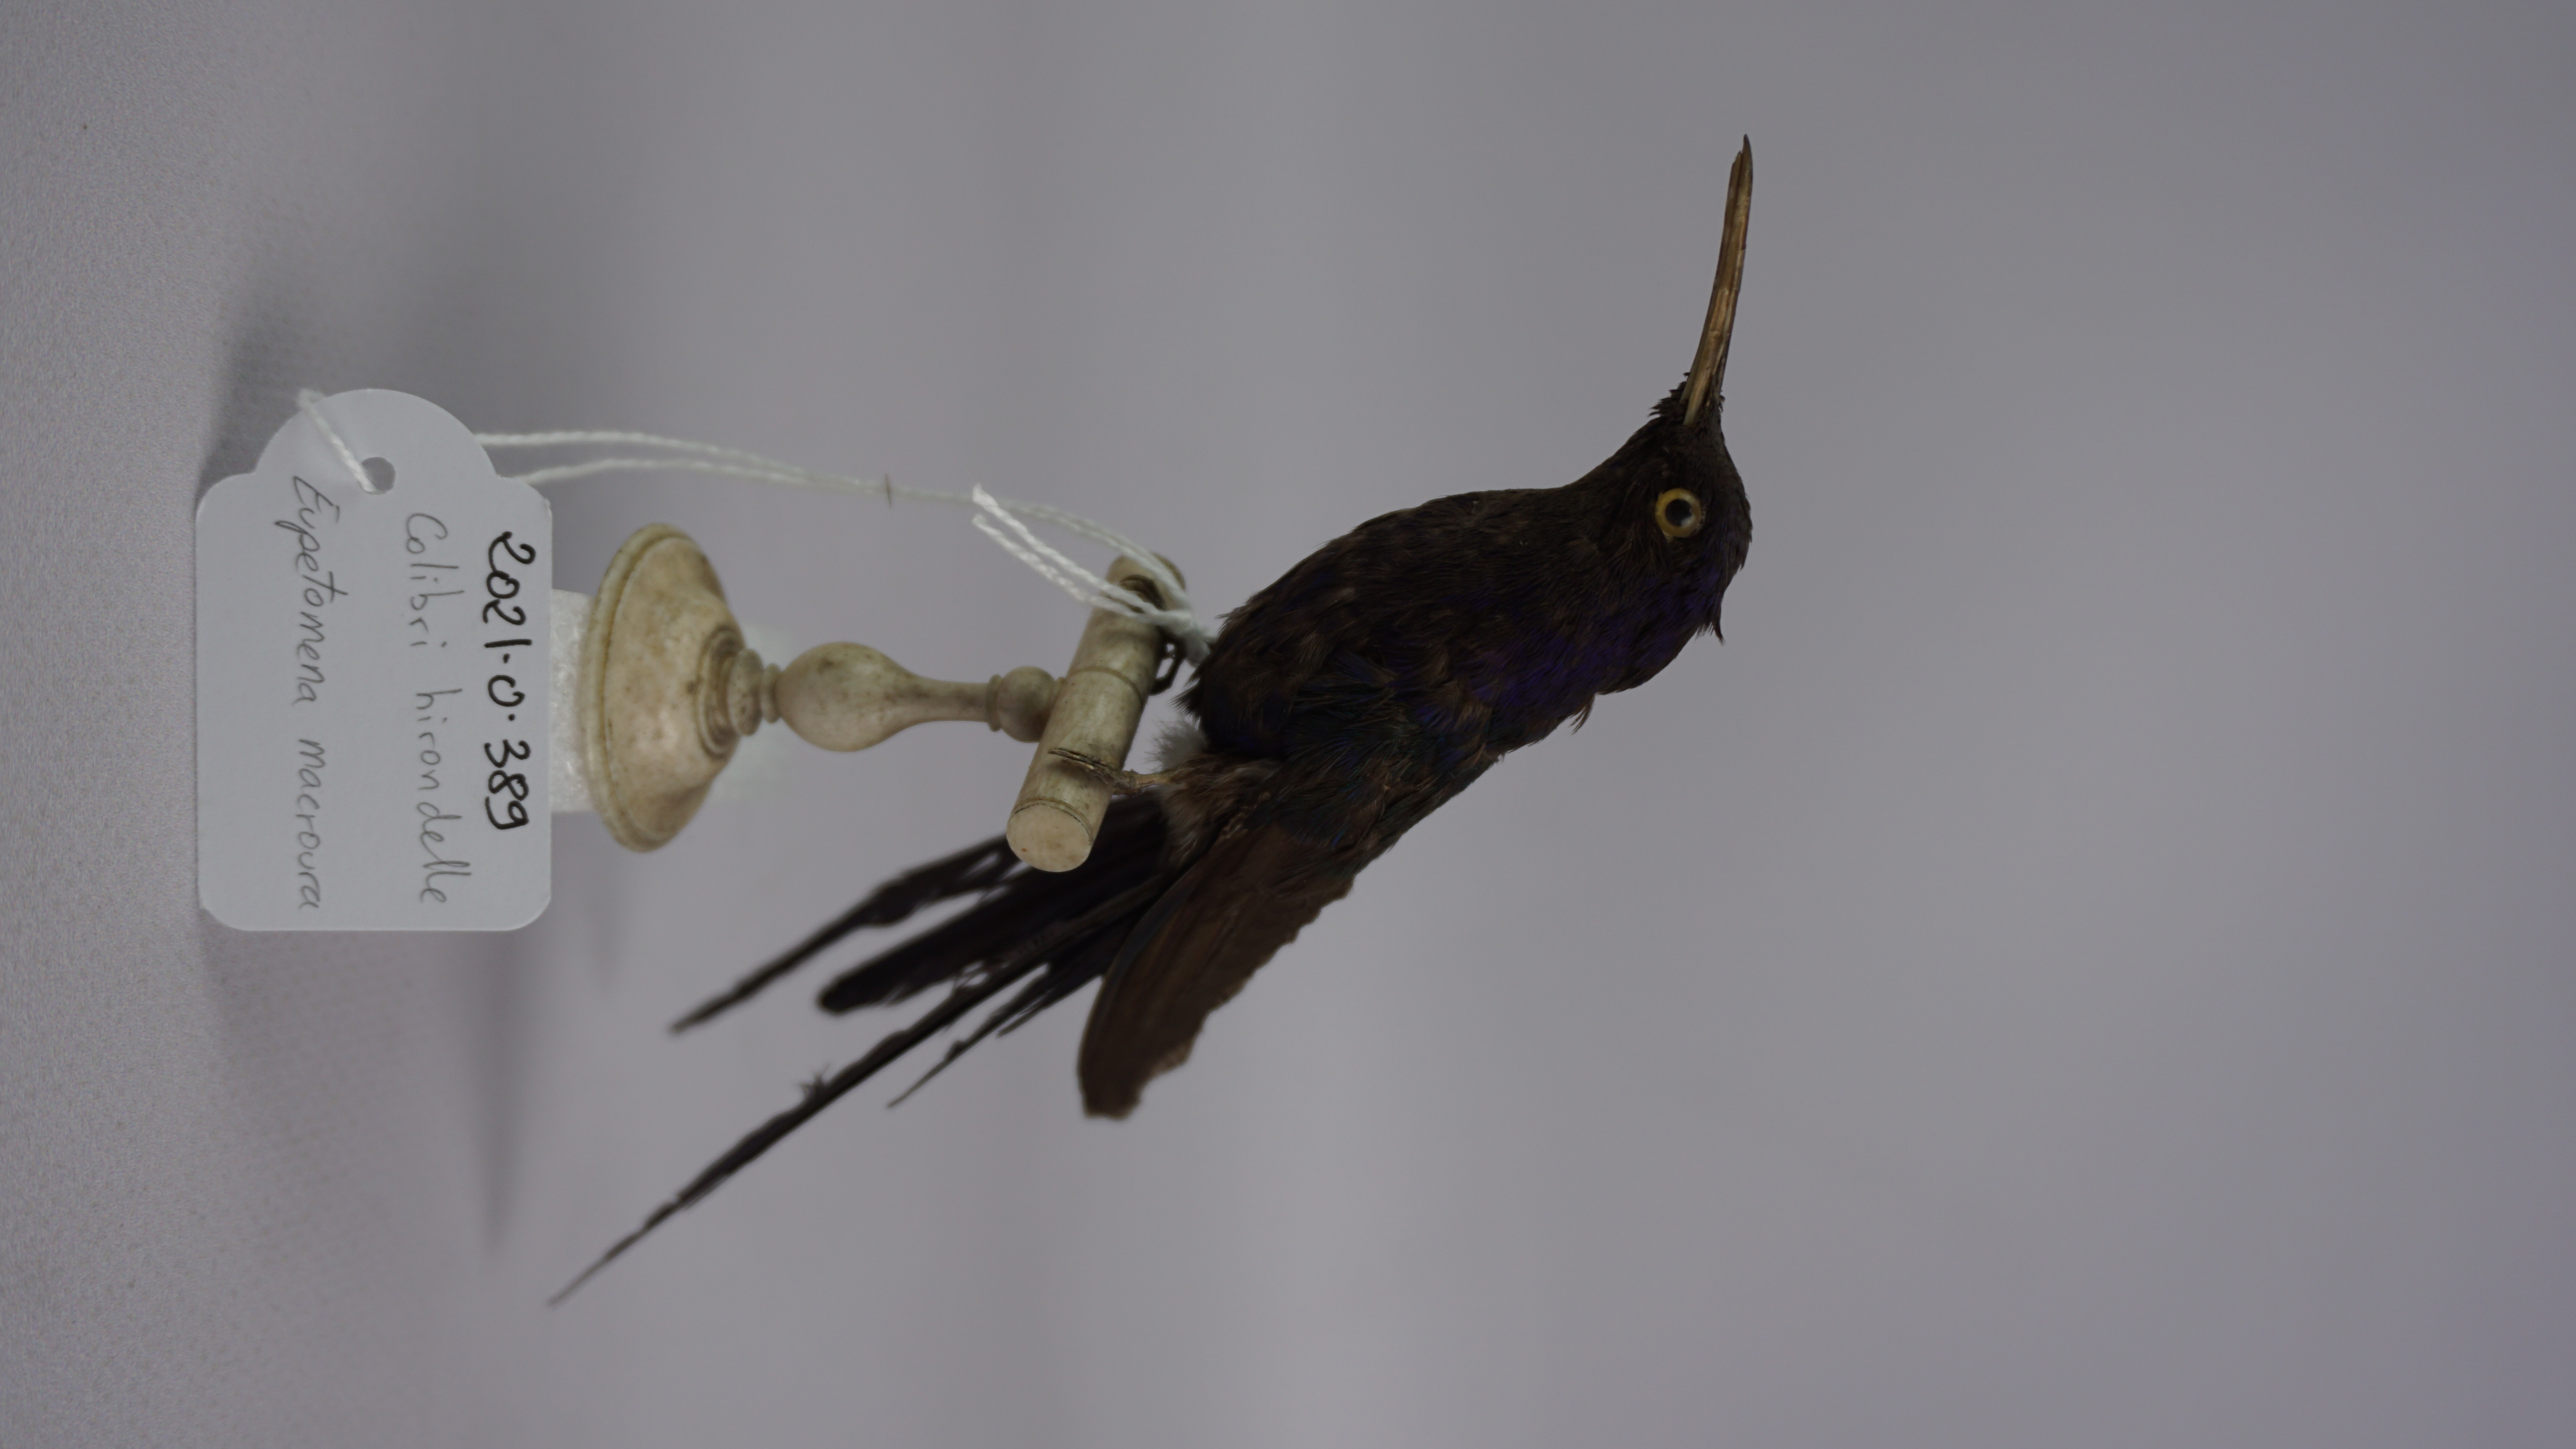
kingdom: Animalia
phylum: Chordata
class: Aves
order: Apodiformes
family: Trochilidae
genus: Eupetomena
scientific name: Eupetomena macroura
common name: Swallow-tailed hummingbird
